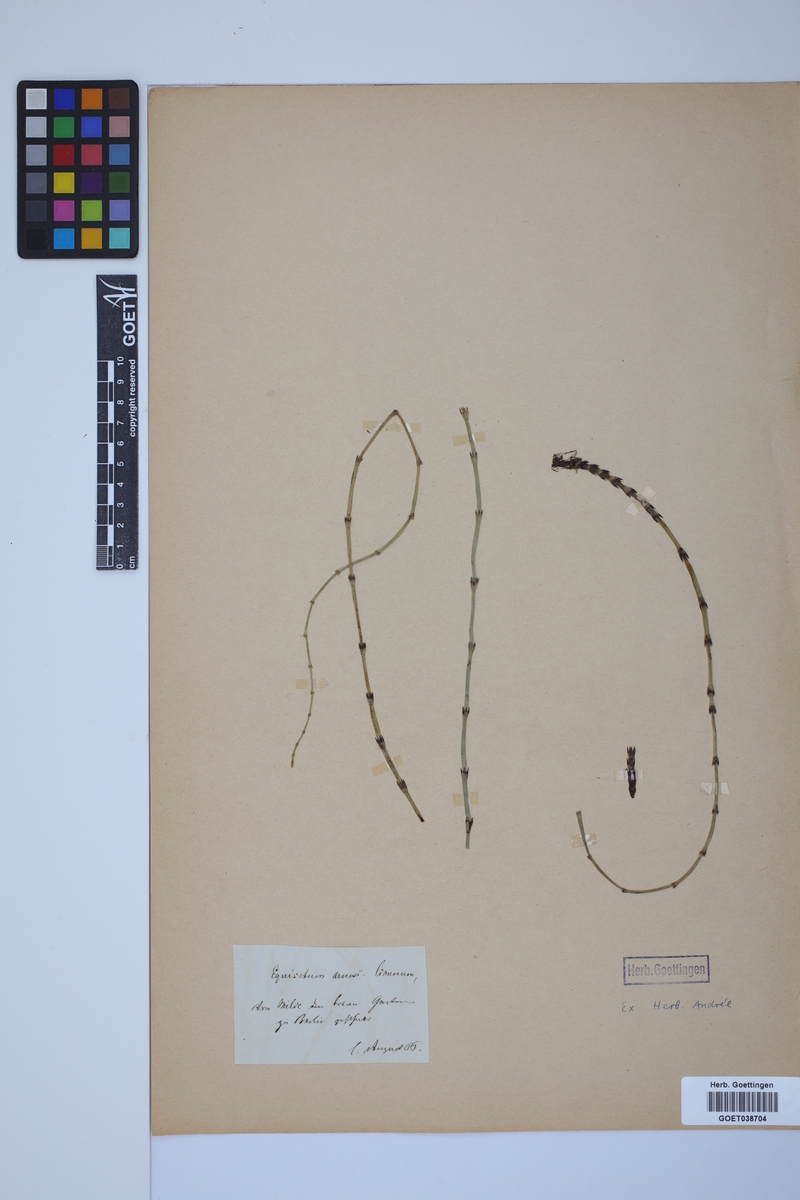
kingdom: Plantae
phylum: Tracheophyta
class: Polypodiopsida
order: Equisetales
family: Equisetaceae
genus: Equisetum
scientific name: Equisetum litorale
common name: Littoral horsetail
